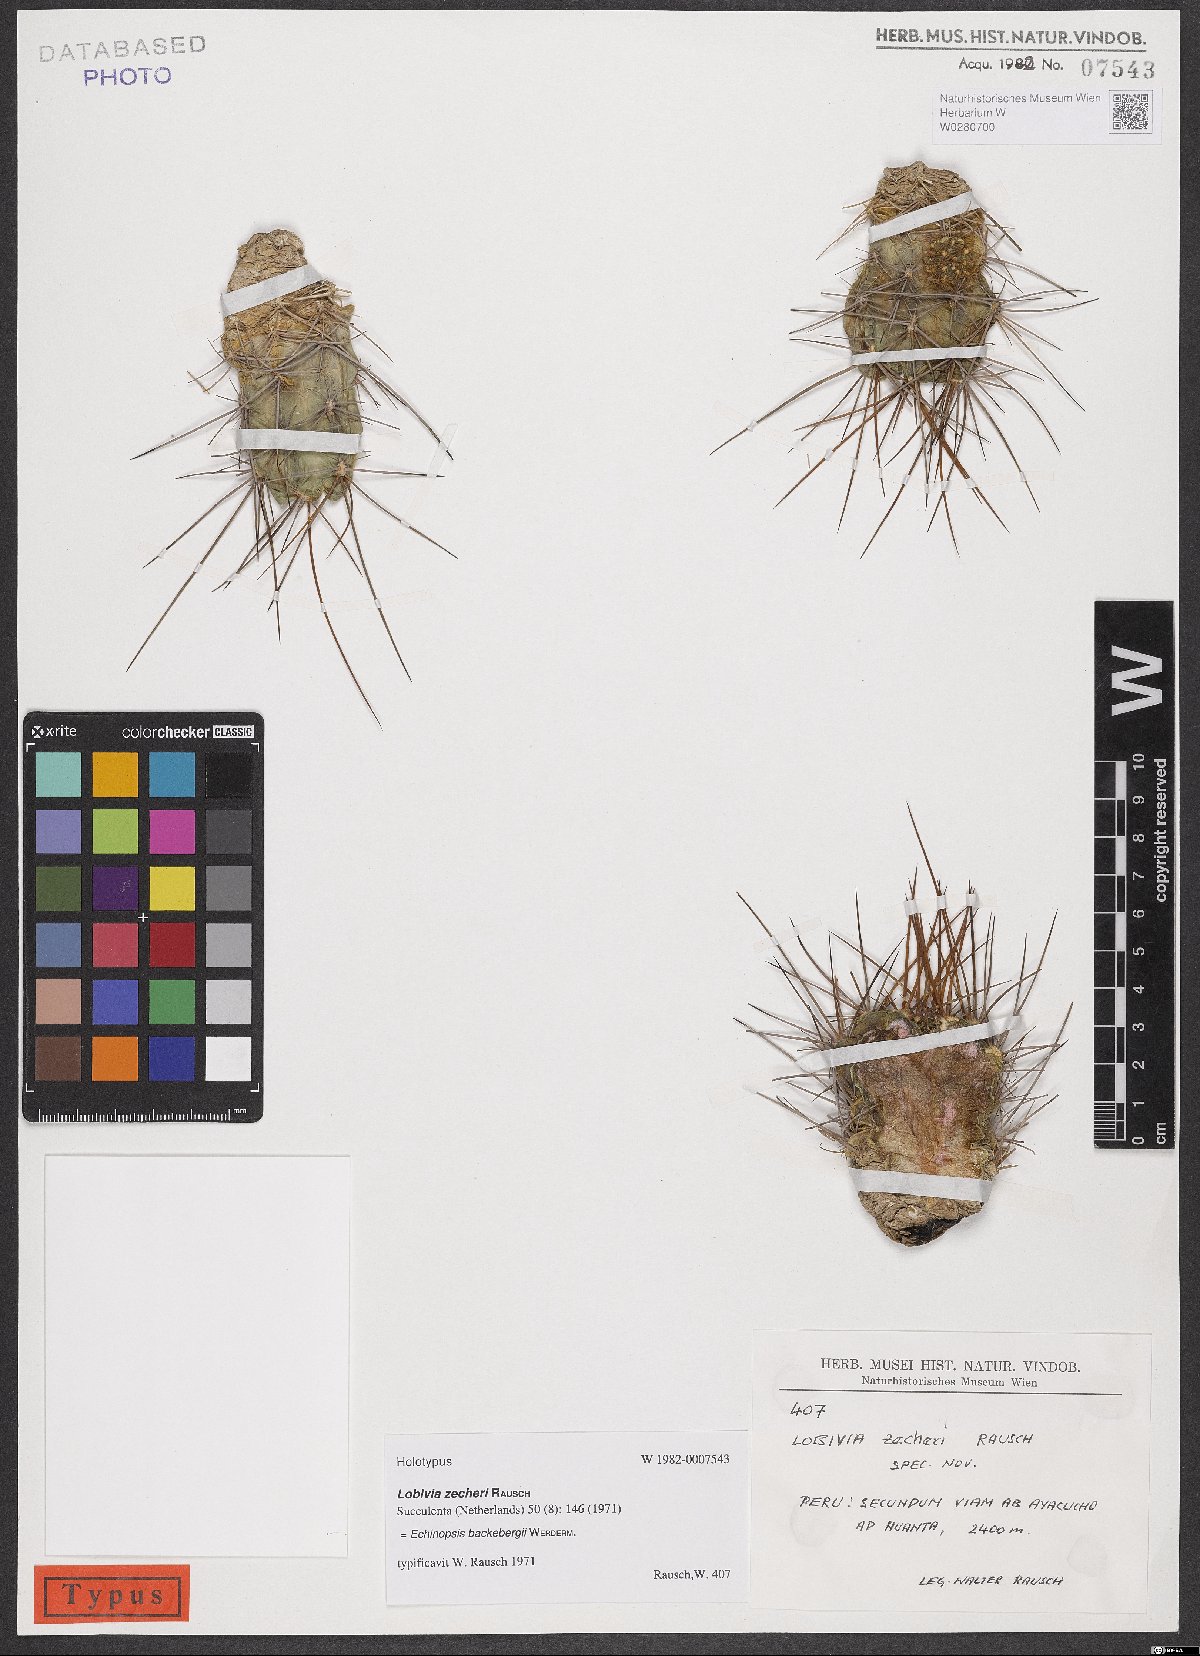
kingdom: Plantae
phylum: Tracheophyta
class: Magnoliopsida
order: Caryophyllales
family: Cactaceae
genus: Lobivia
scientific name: Lobivia backebergii
